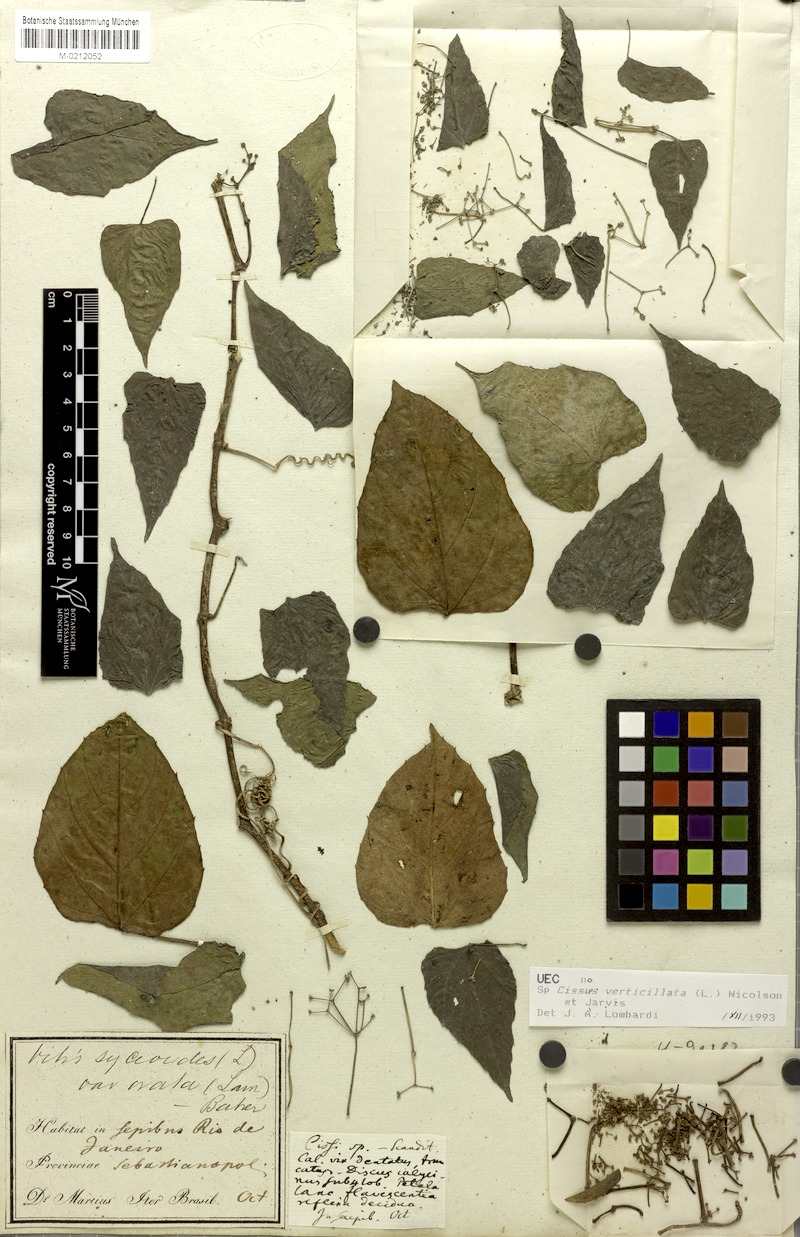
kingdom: Plantae
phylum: Tracheophyta
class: Magnoliopsida
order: Vitales
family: Vitaceae
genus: Cissus
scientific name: Cissus verticillata
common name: Princess vine
